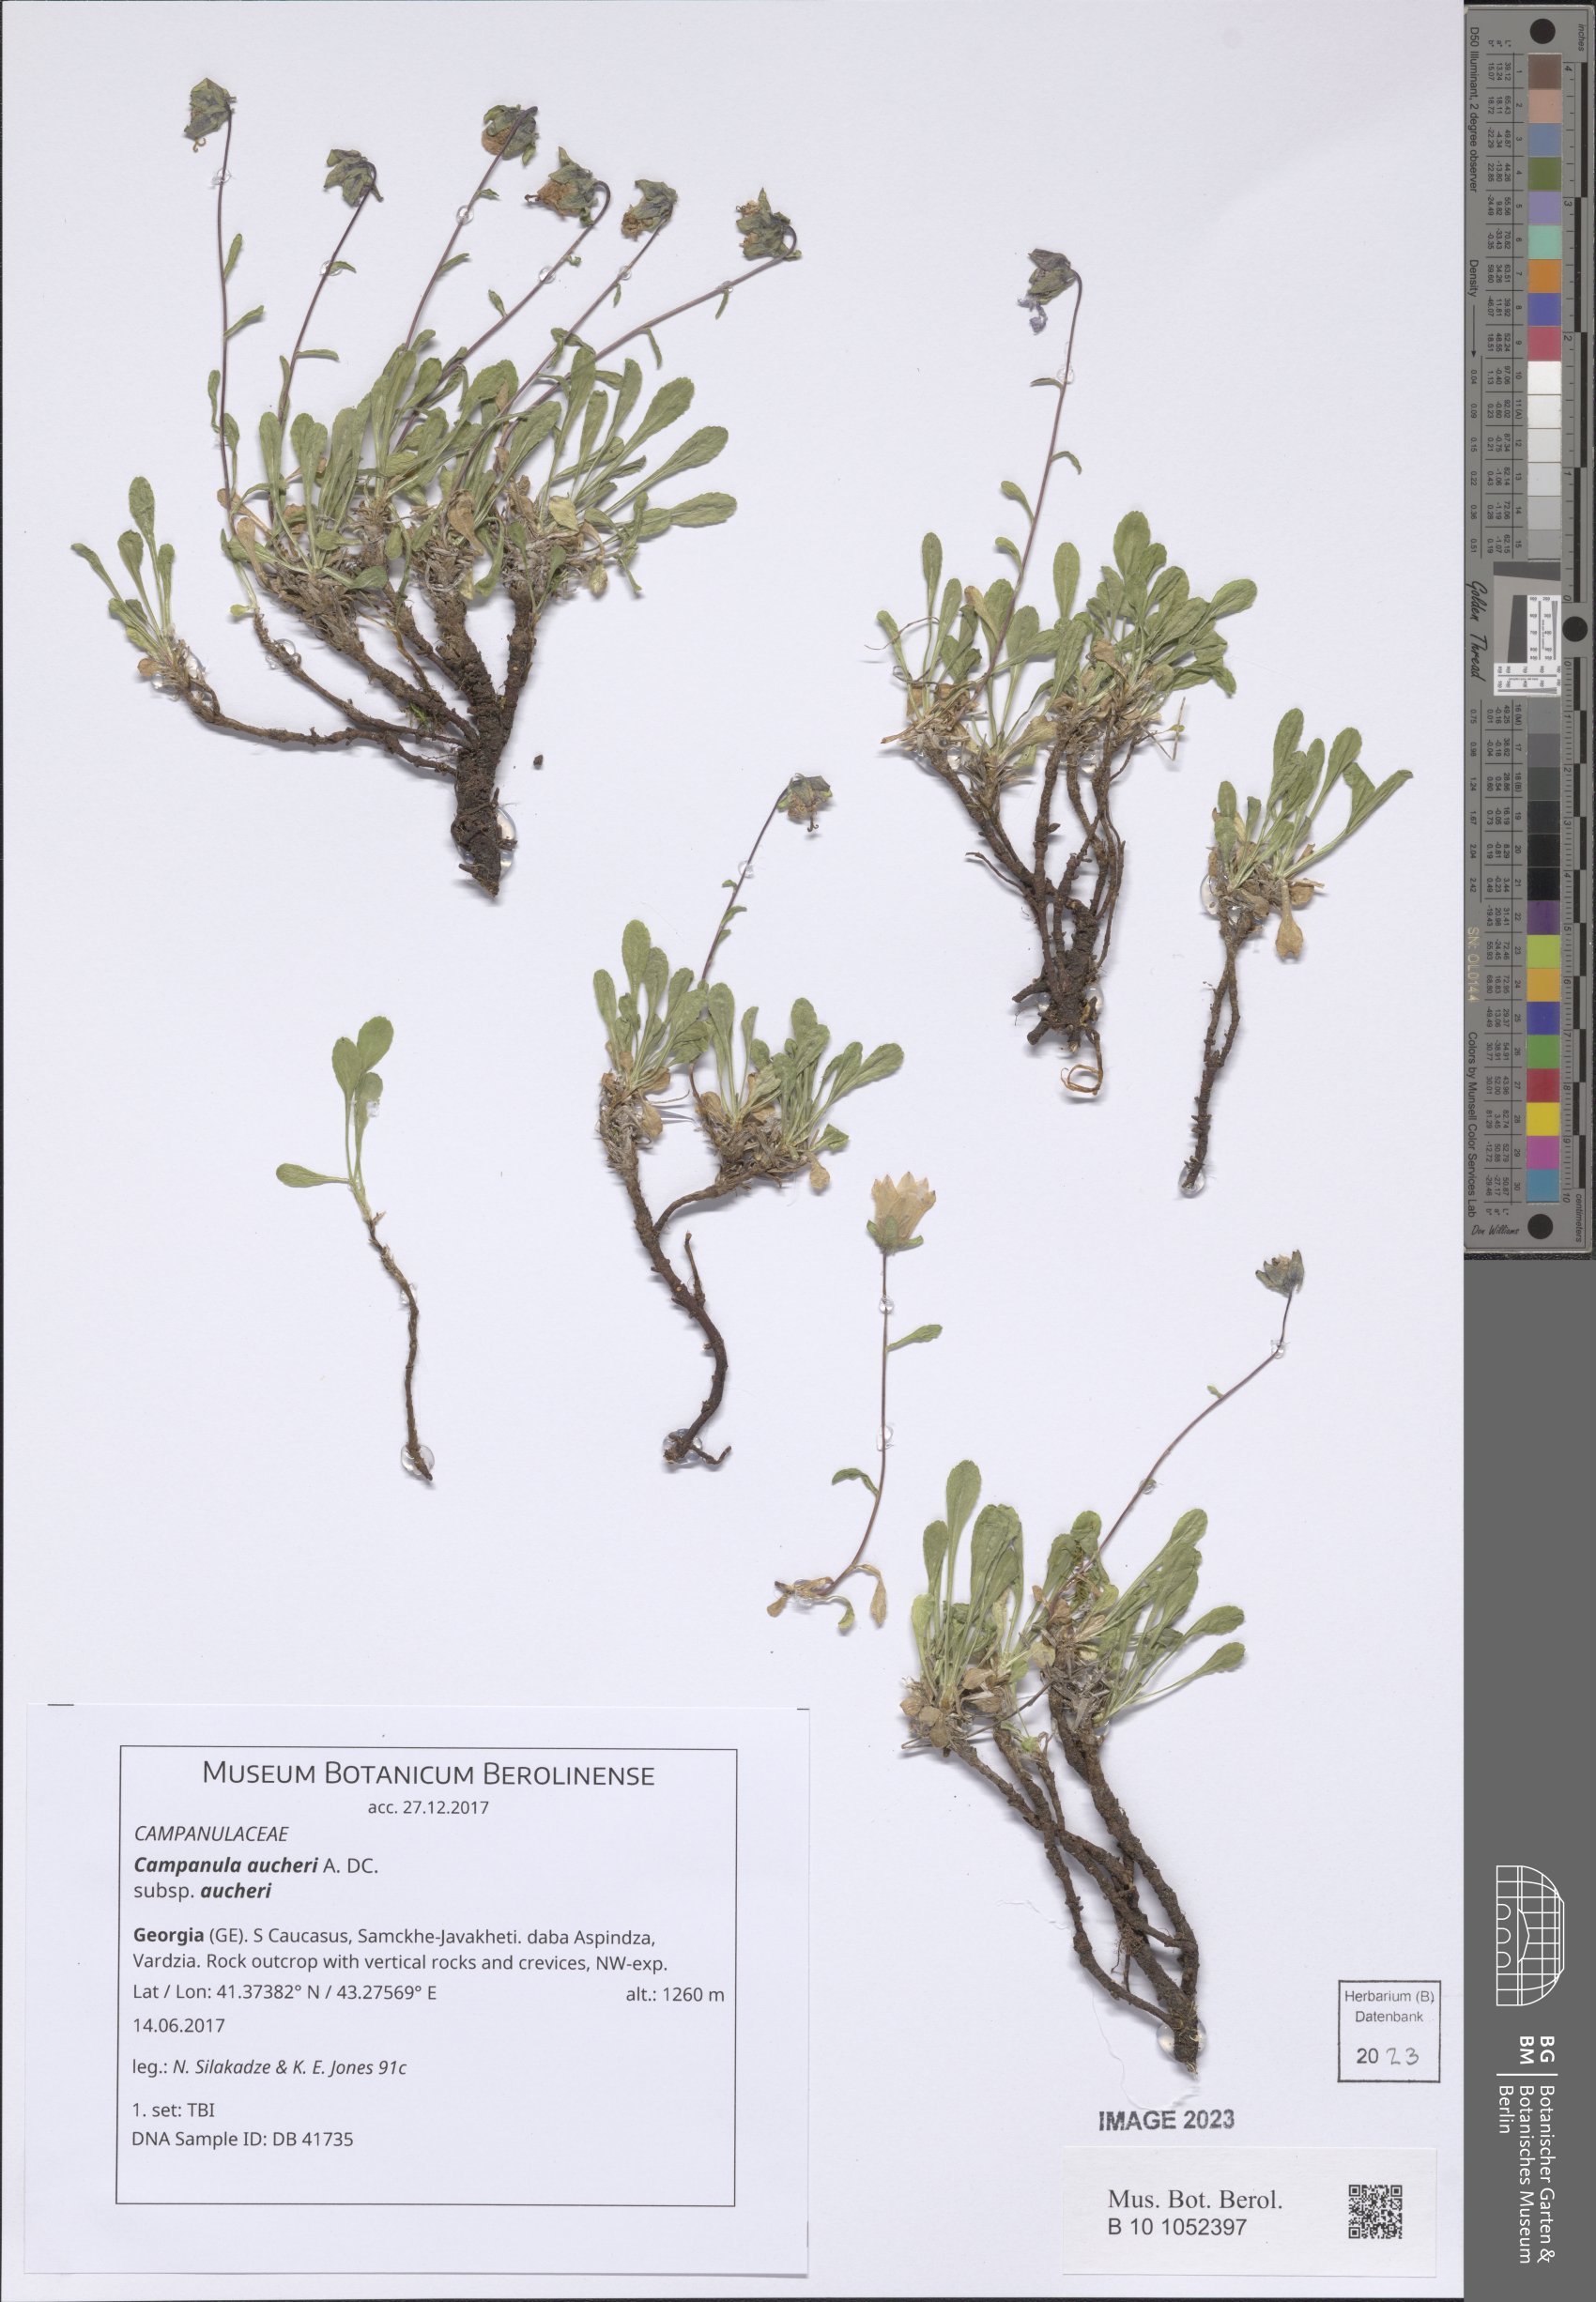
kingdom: Plantae
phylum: Tracheophyta
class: Magnoliopsida
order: Asterales
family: Campanulaceae
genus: Campanula
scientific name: Campanula saxifraga
